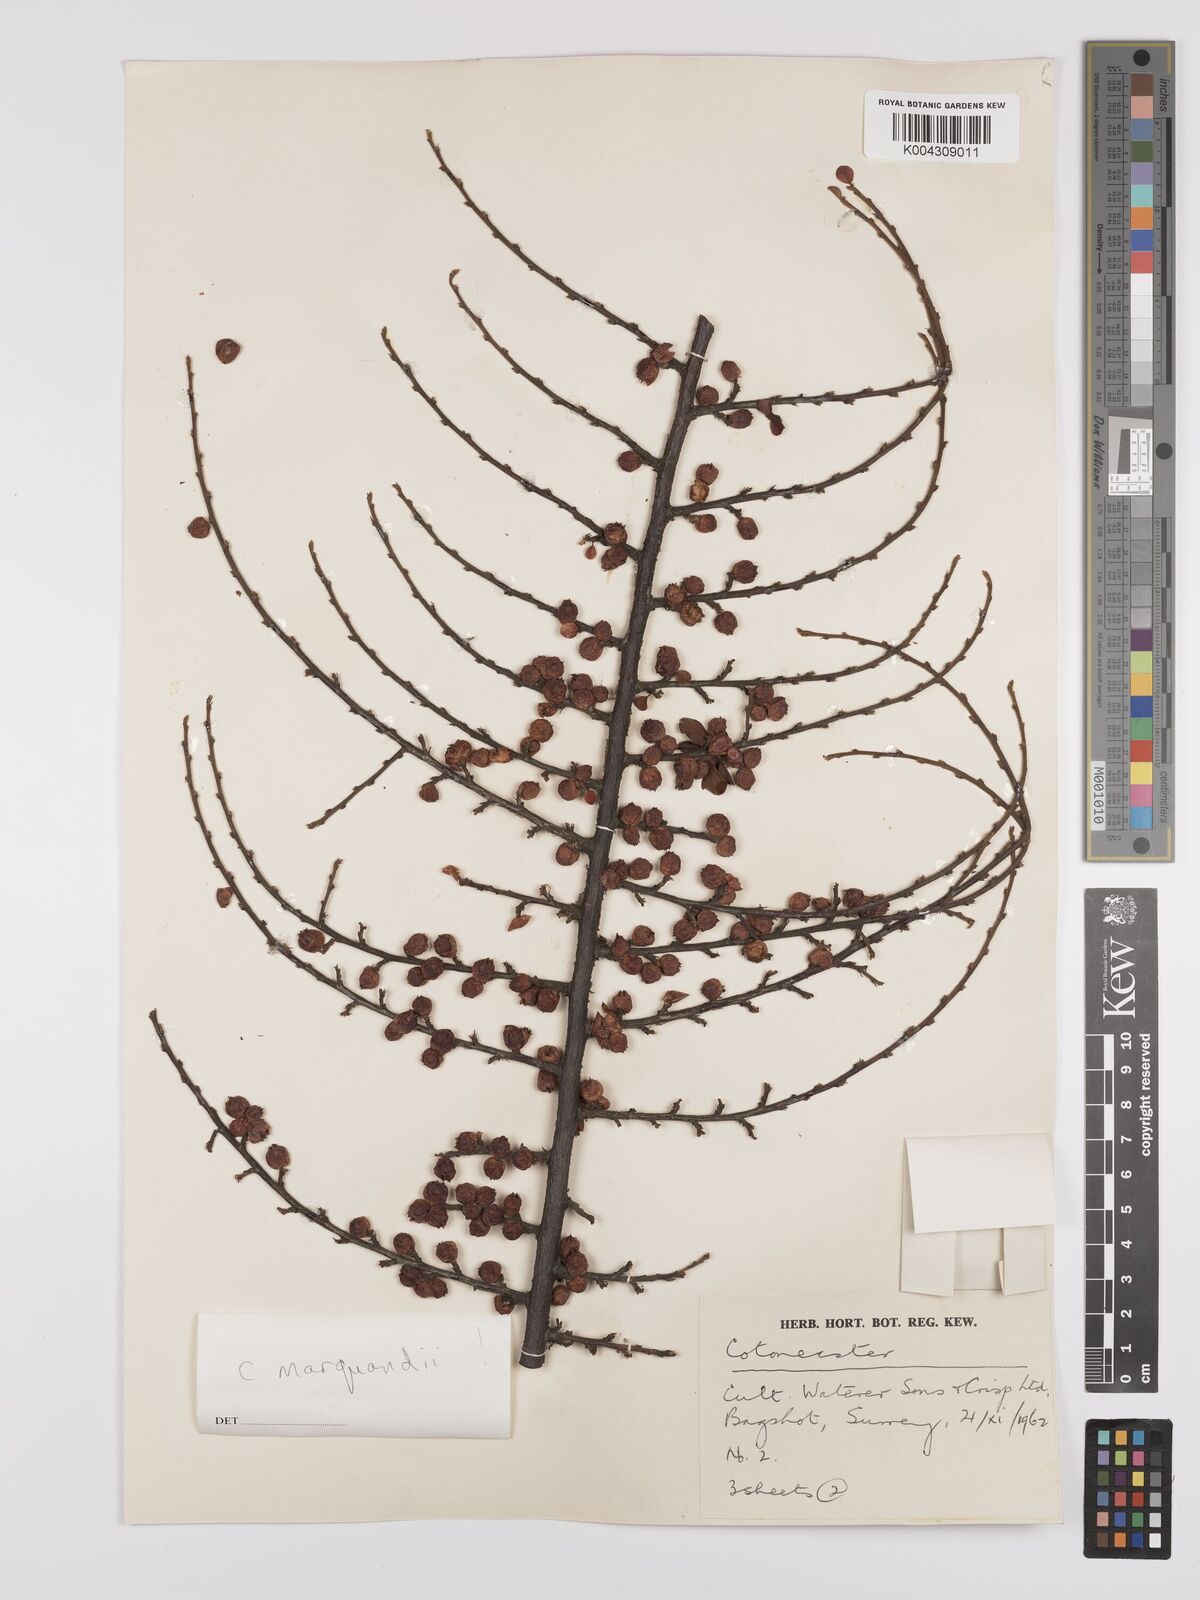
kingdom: Plantae
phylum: Tracheophyta
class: Magnoliopsida
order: Rosales
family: Rosaceae
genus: Cotoneaster
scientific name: Cotoneaster
